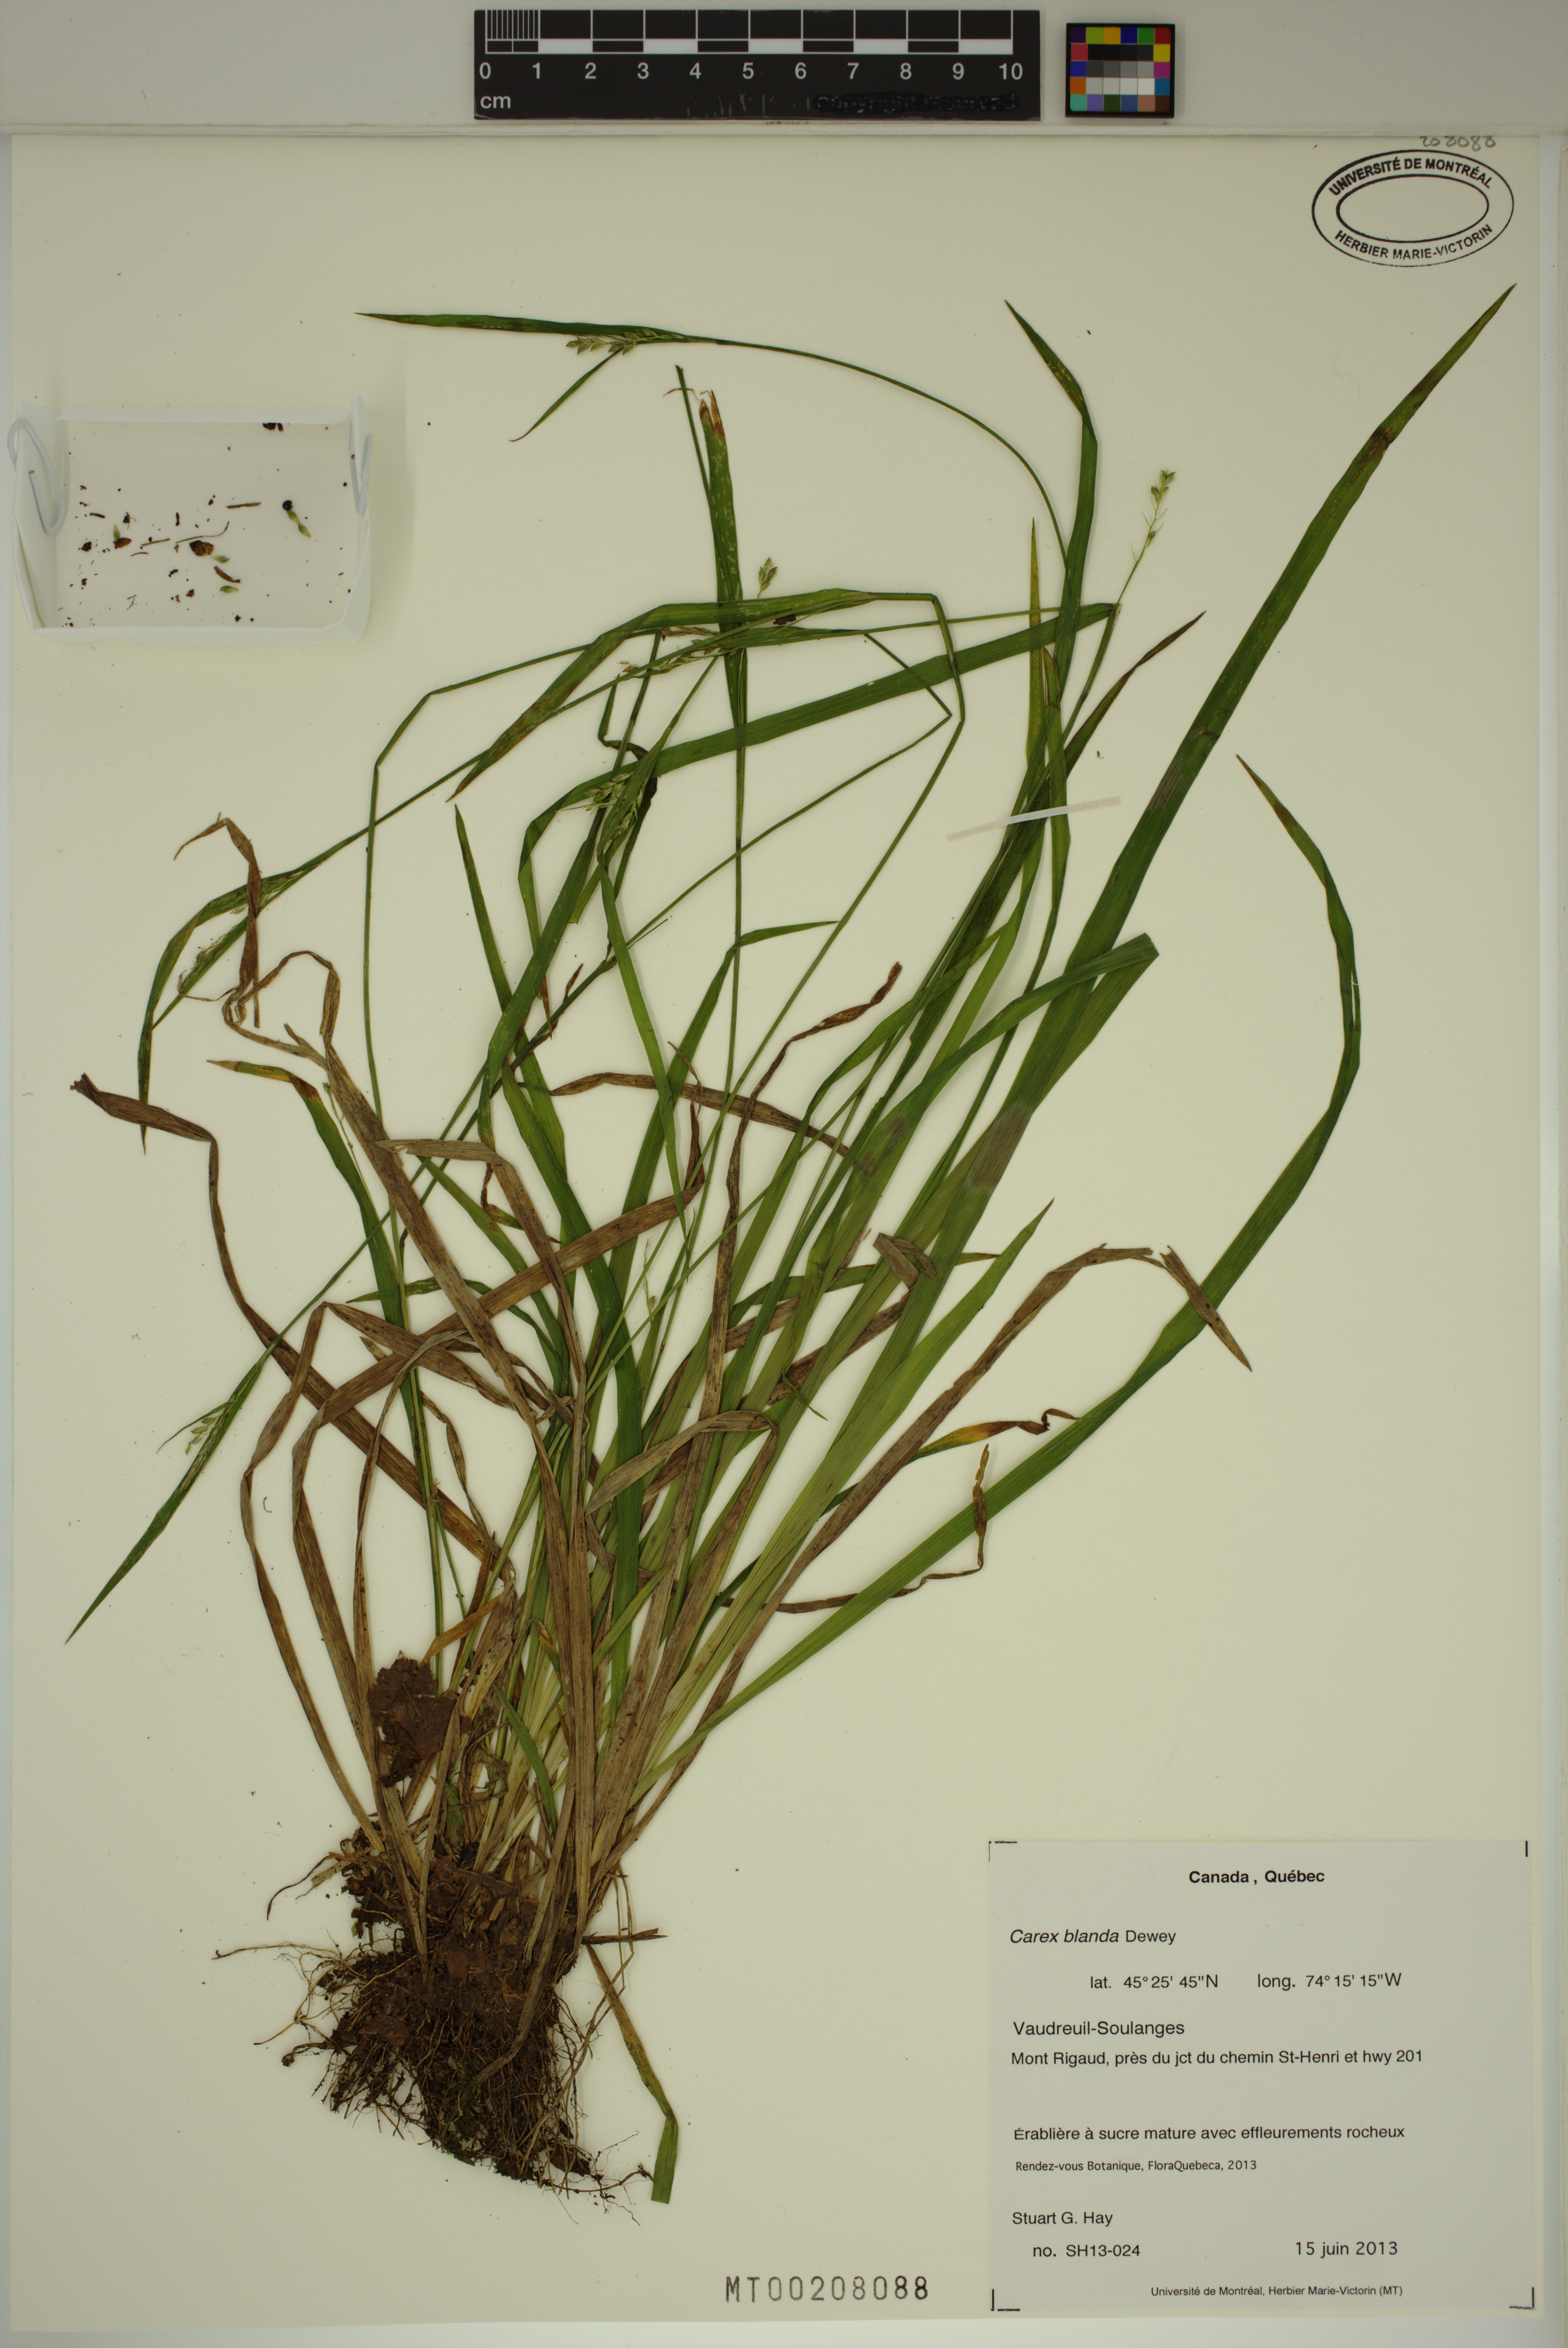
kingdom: Plantae
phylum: Tracheophyta
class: Liliopsida
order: Poales
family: Cyperaceae
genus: Carex
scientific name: Carex blanda
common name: Bland sedge
